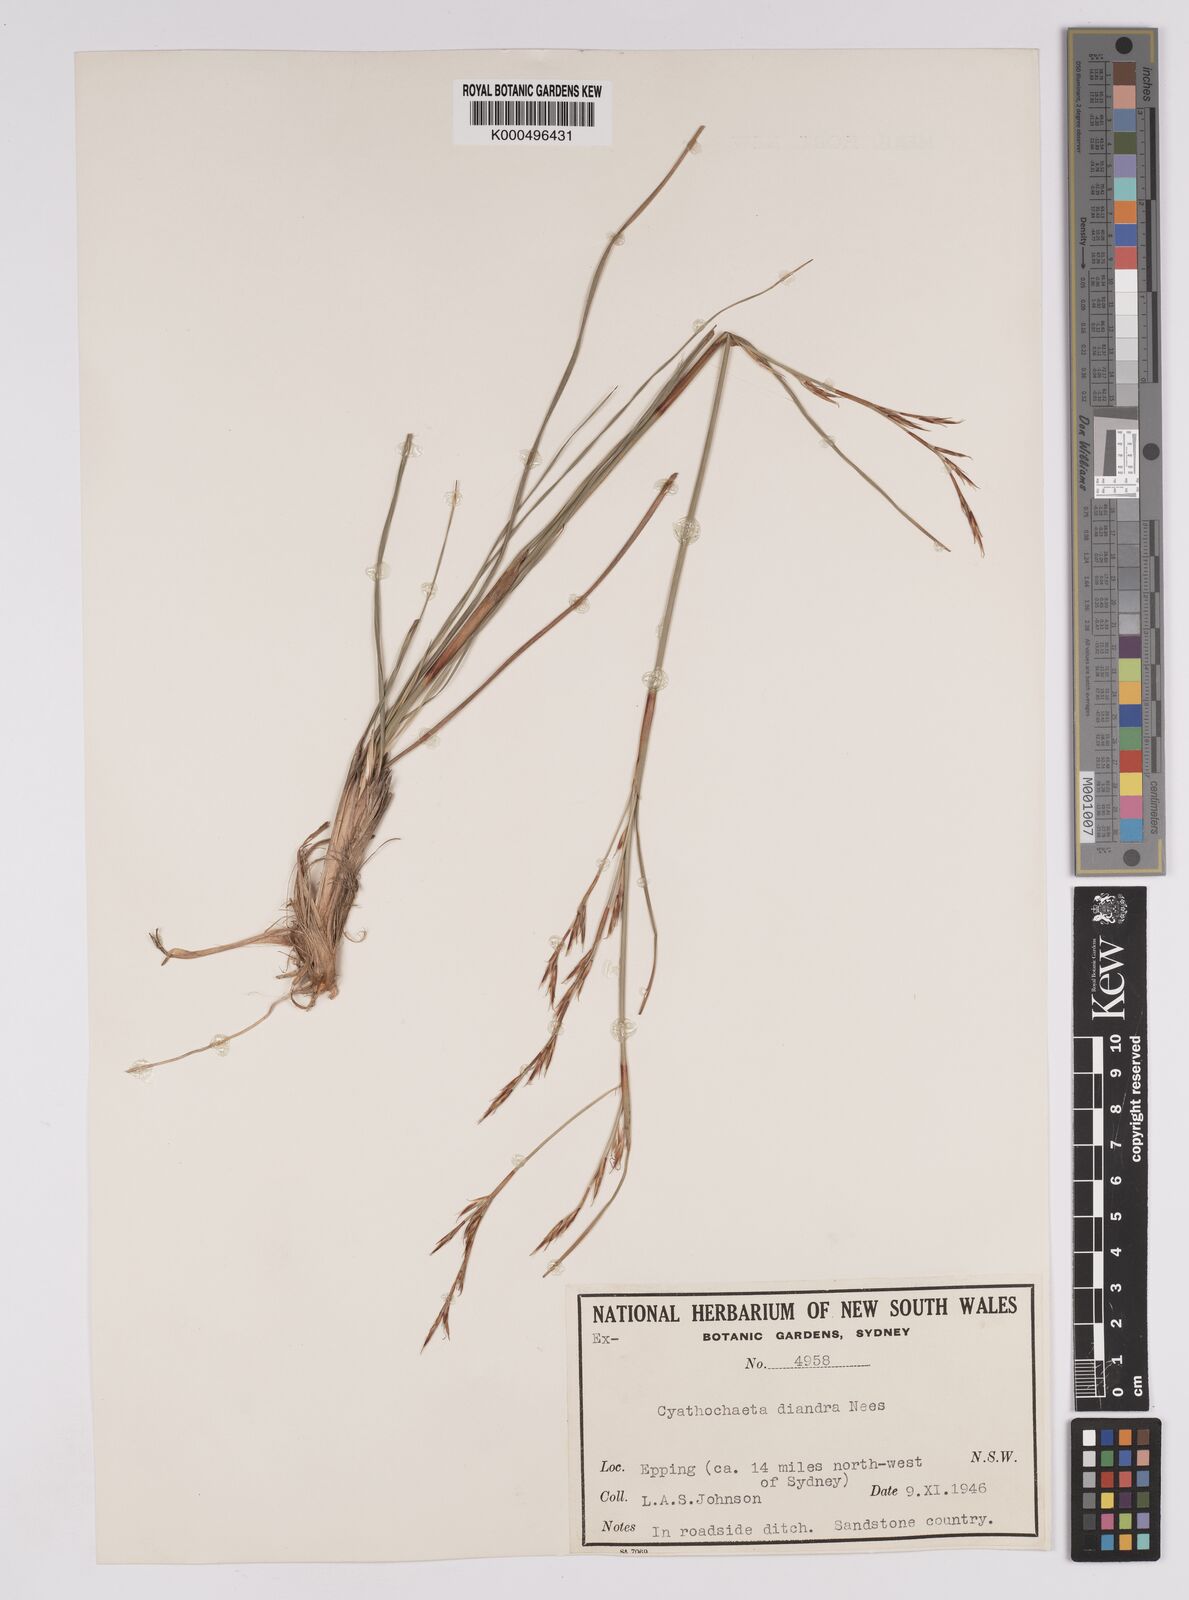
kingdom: Plantae
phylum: Tracheophyta
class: Liliopsida
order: Poales
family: Cyperaceae
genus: Cyathochaeta
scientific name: Cyathochaeta diandra
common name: Sheath rush
